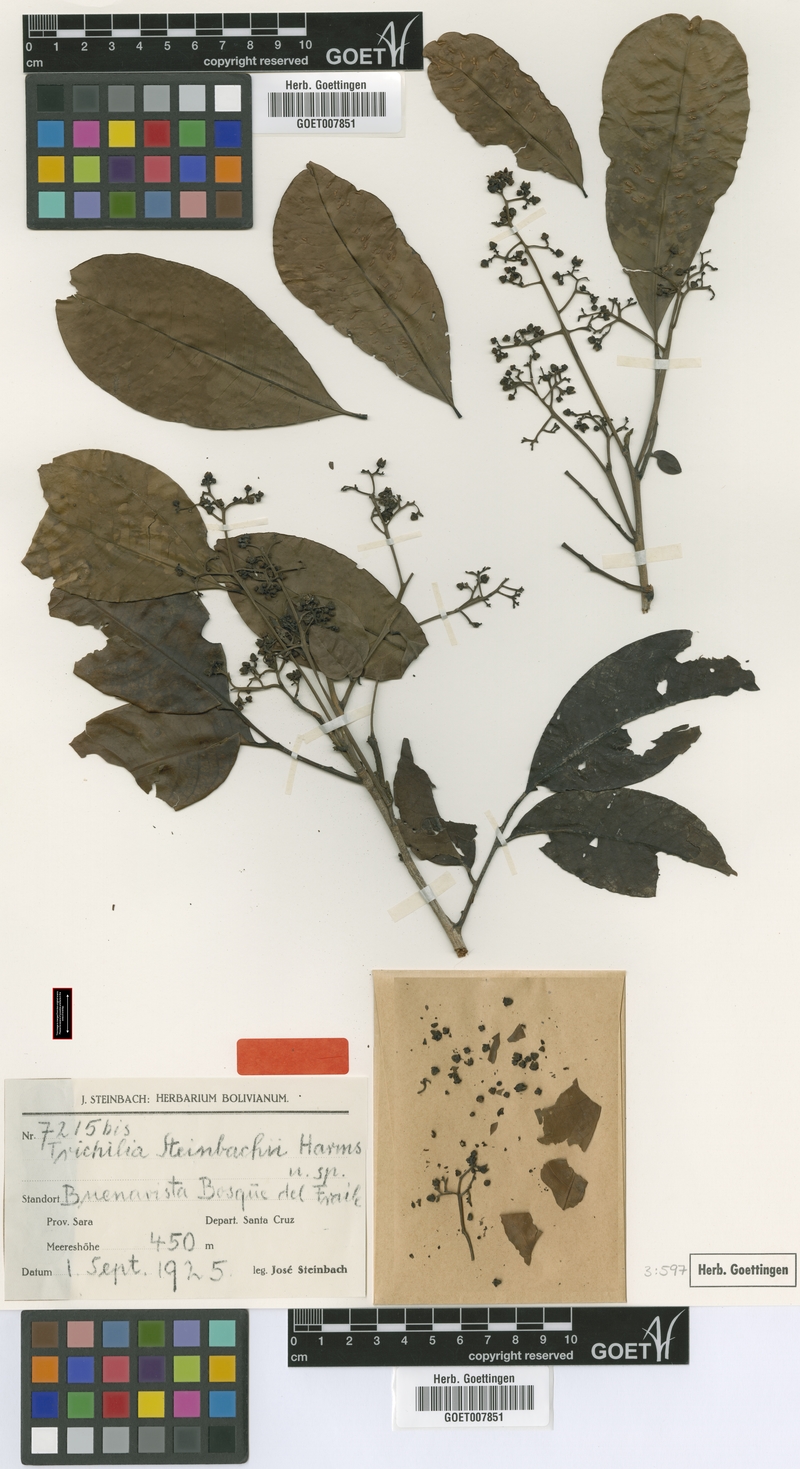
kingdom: Plantae
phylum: Tracheophyta
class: Magnoliopsida
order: Sapindales
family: Meliaceae
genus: Trichilia
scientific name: Trichilia pleeana
